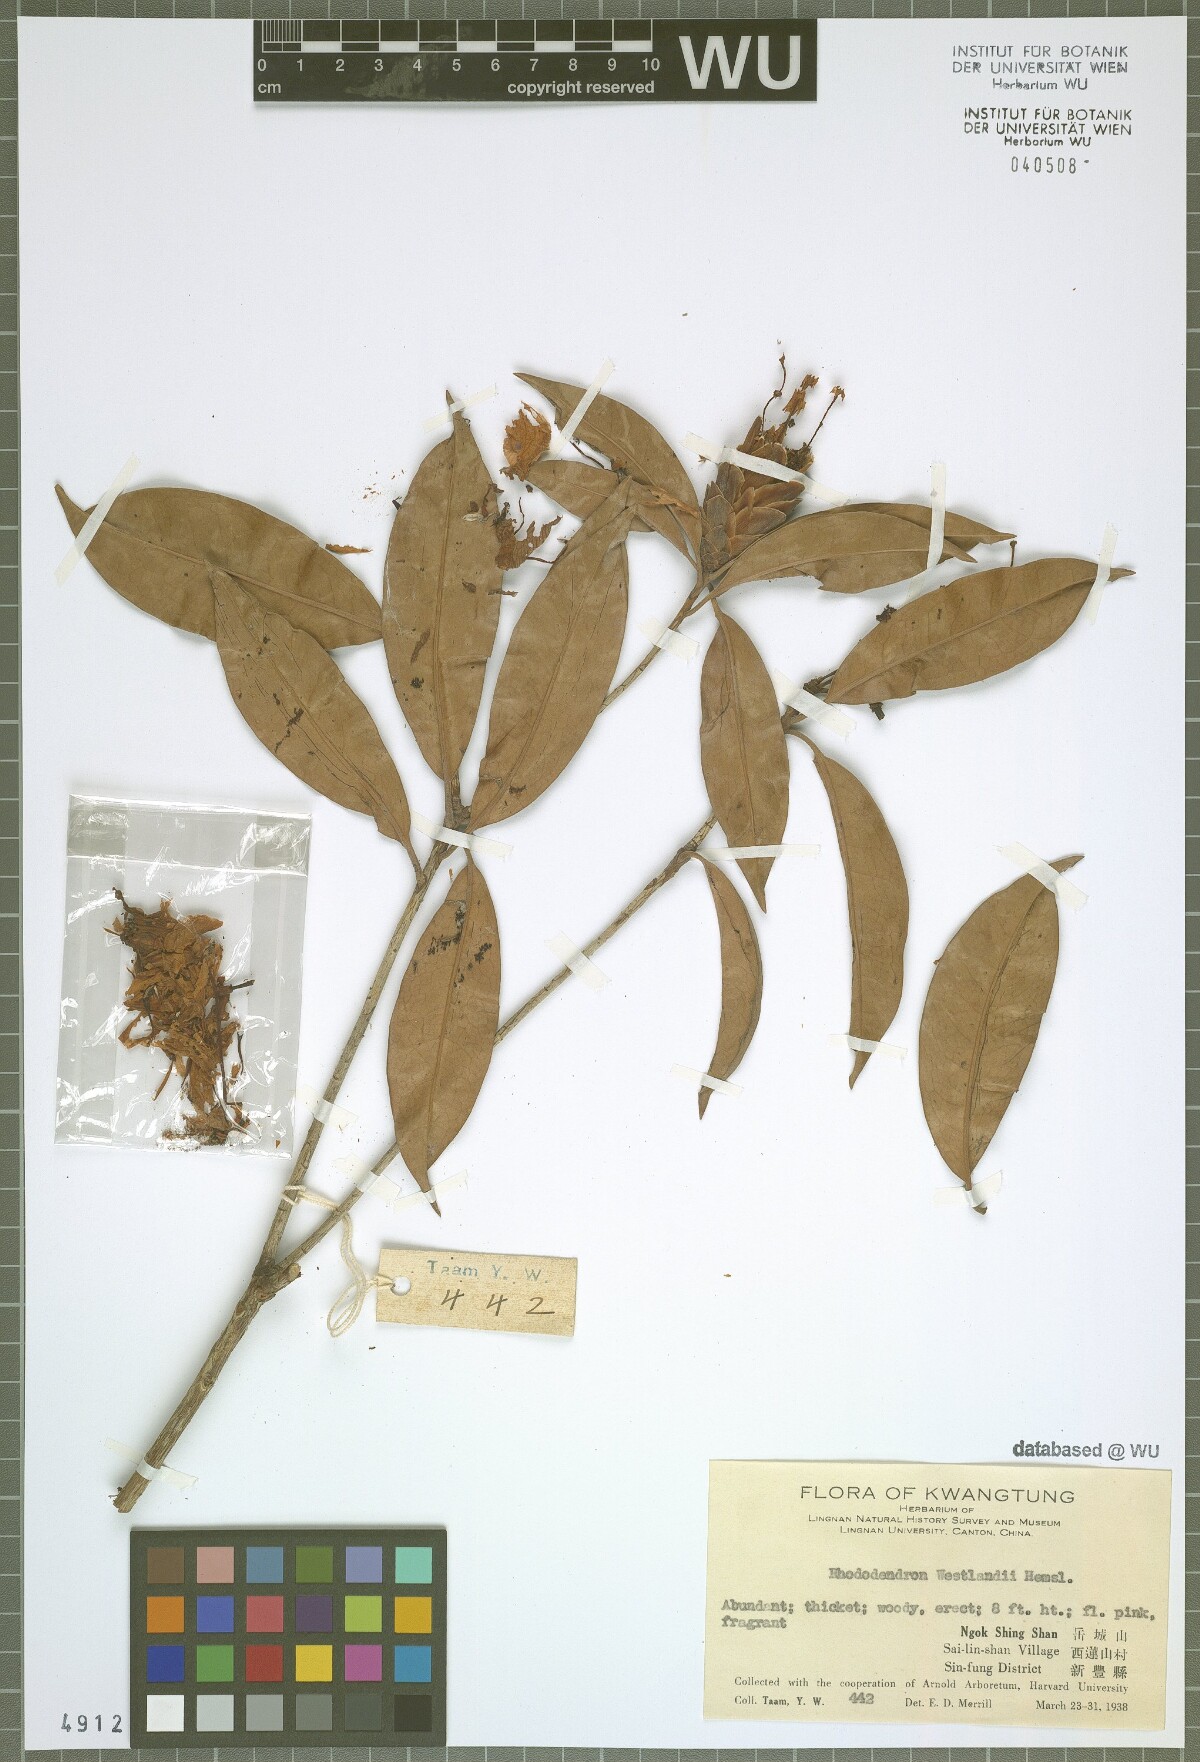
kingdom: Plantae
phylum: Tracheophyta
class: Magnoliopsida
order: Ericales
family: Ericaceae
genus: Rhododendron
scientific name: Rhododendron westlandii
